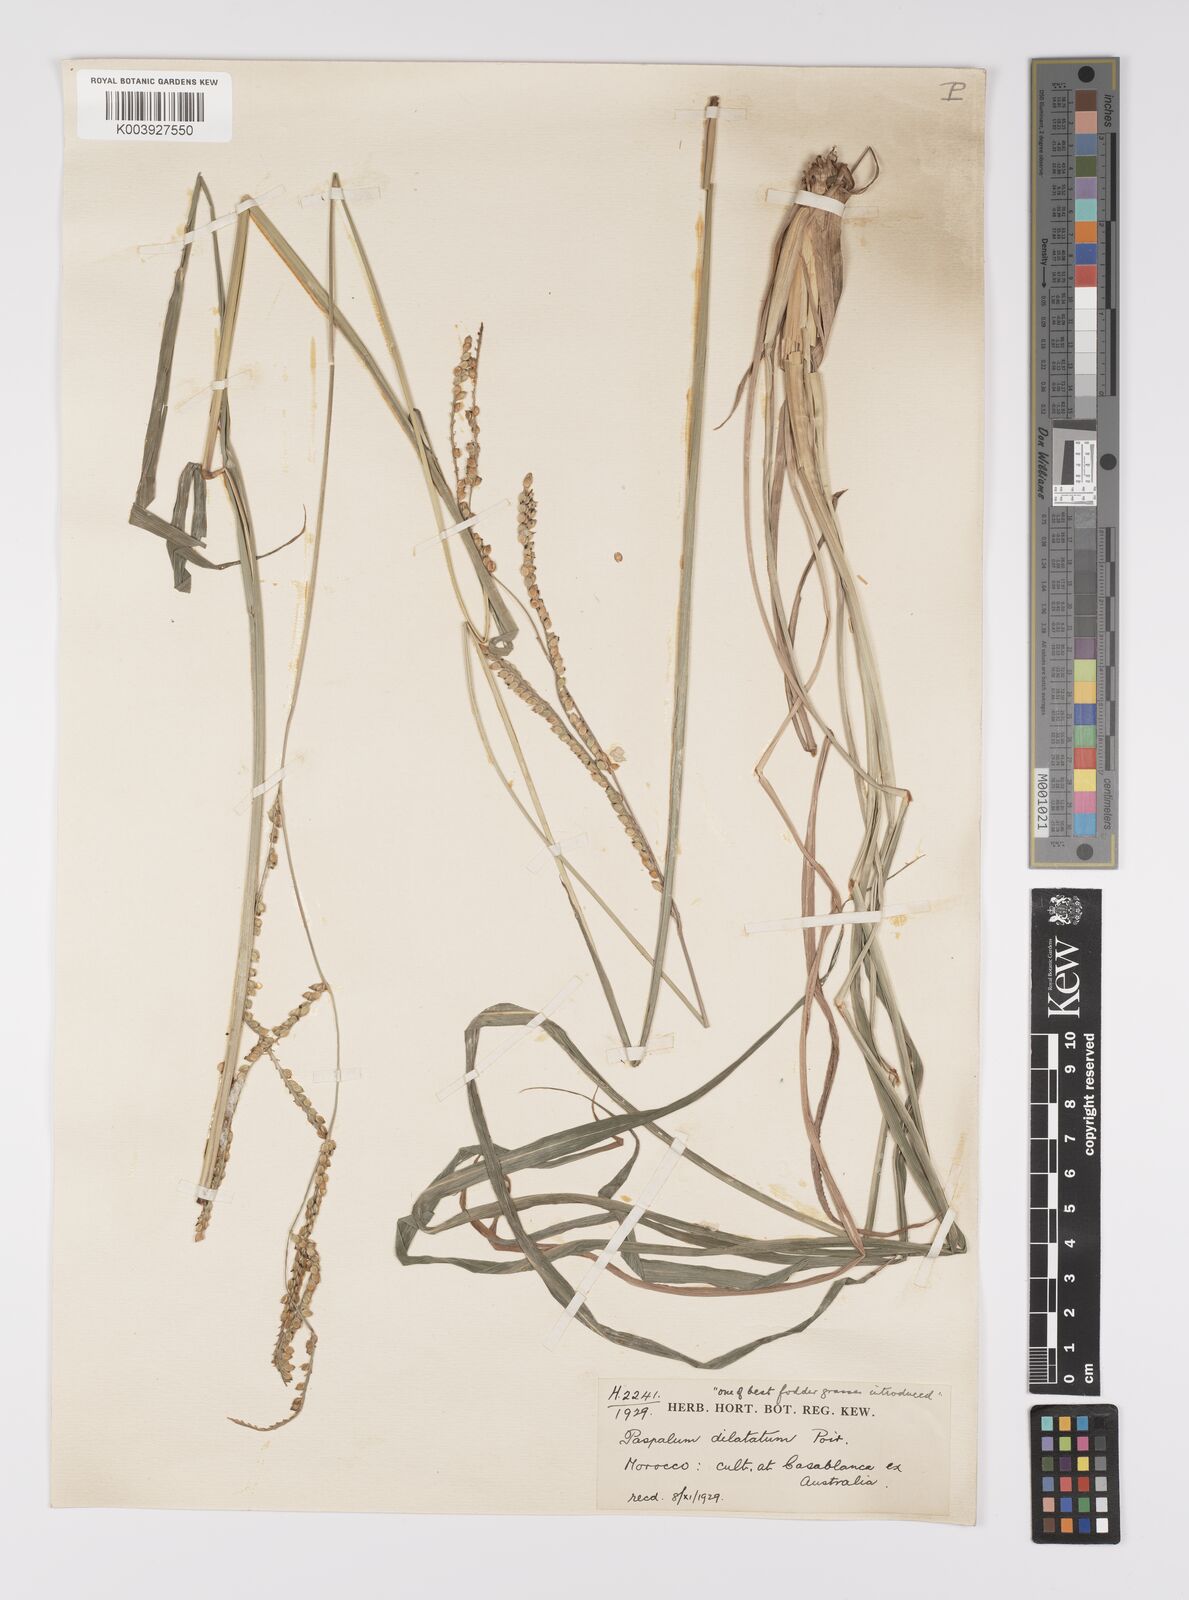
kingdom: Plantae
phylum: Tracheophyta
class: Liliopsida
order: Poales
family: Poaceae
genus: Paspalum
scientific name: Paspalum dilatatum
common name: Dallisgrass
